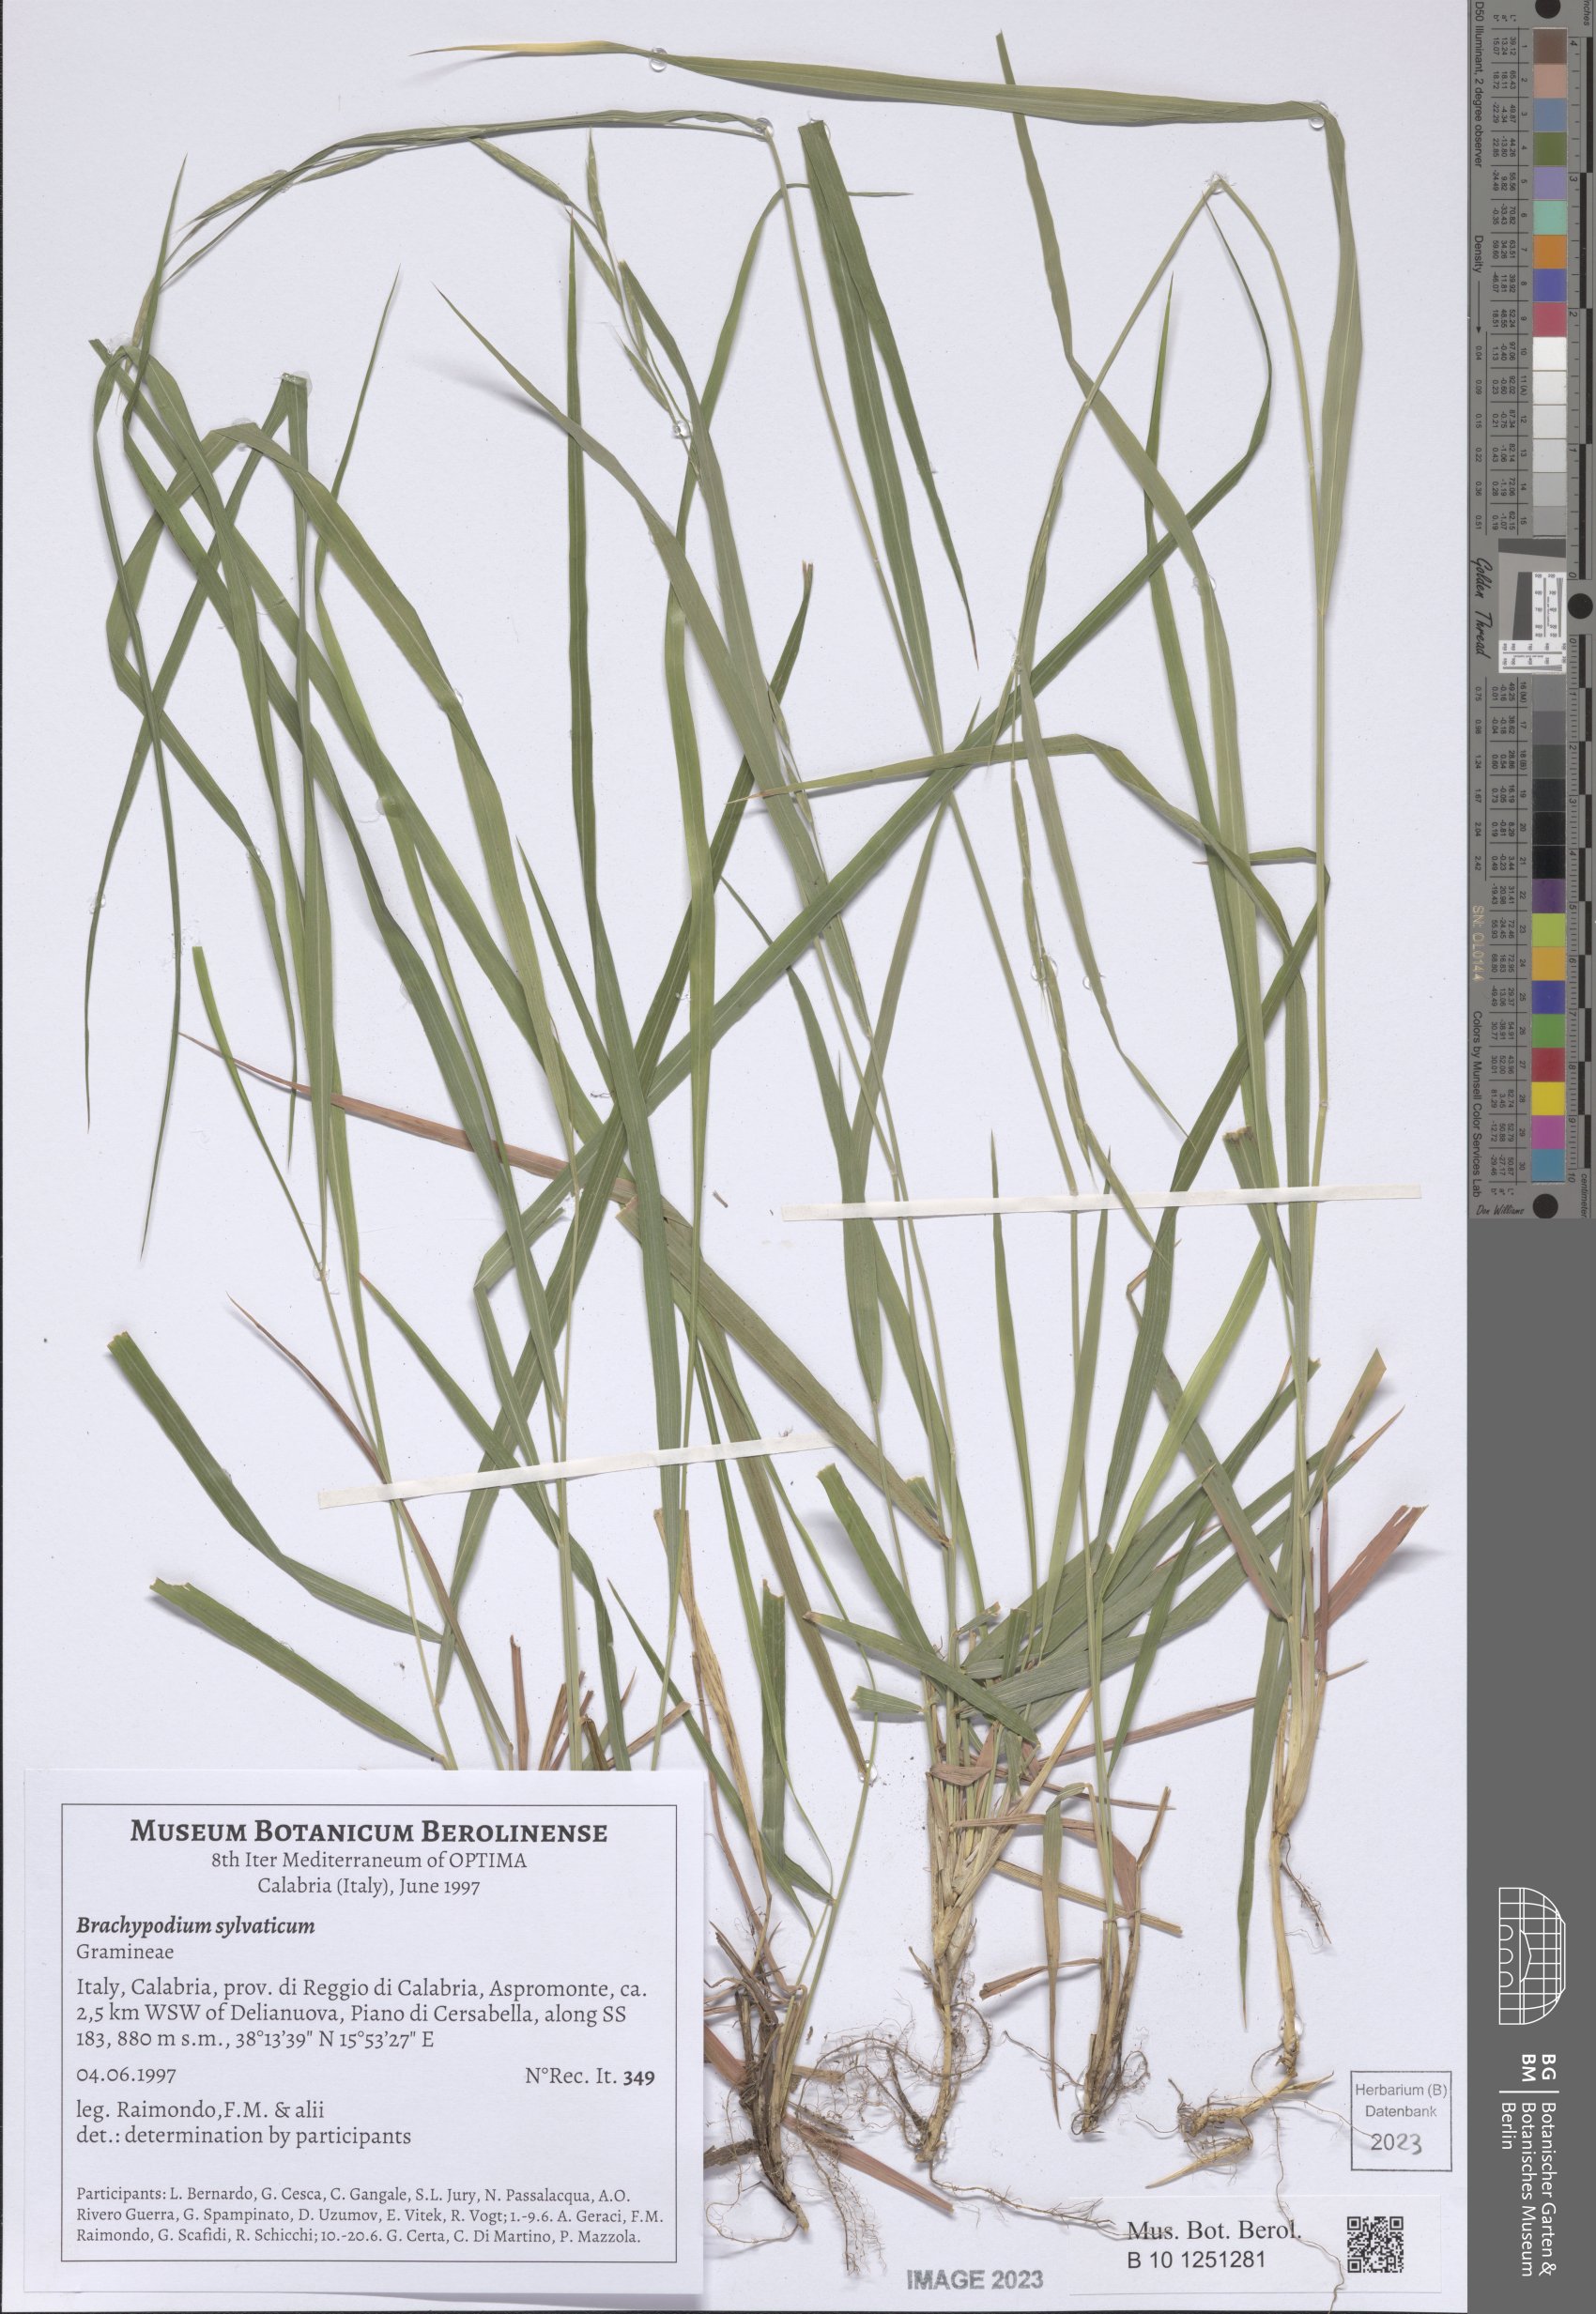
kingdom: Plantae
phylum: Tracheophyta
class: Liliopsida
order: Poales
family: Poaceae
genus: Brachypodium
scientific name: Brachypodium sylvaticum
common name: False-brome
